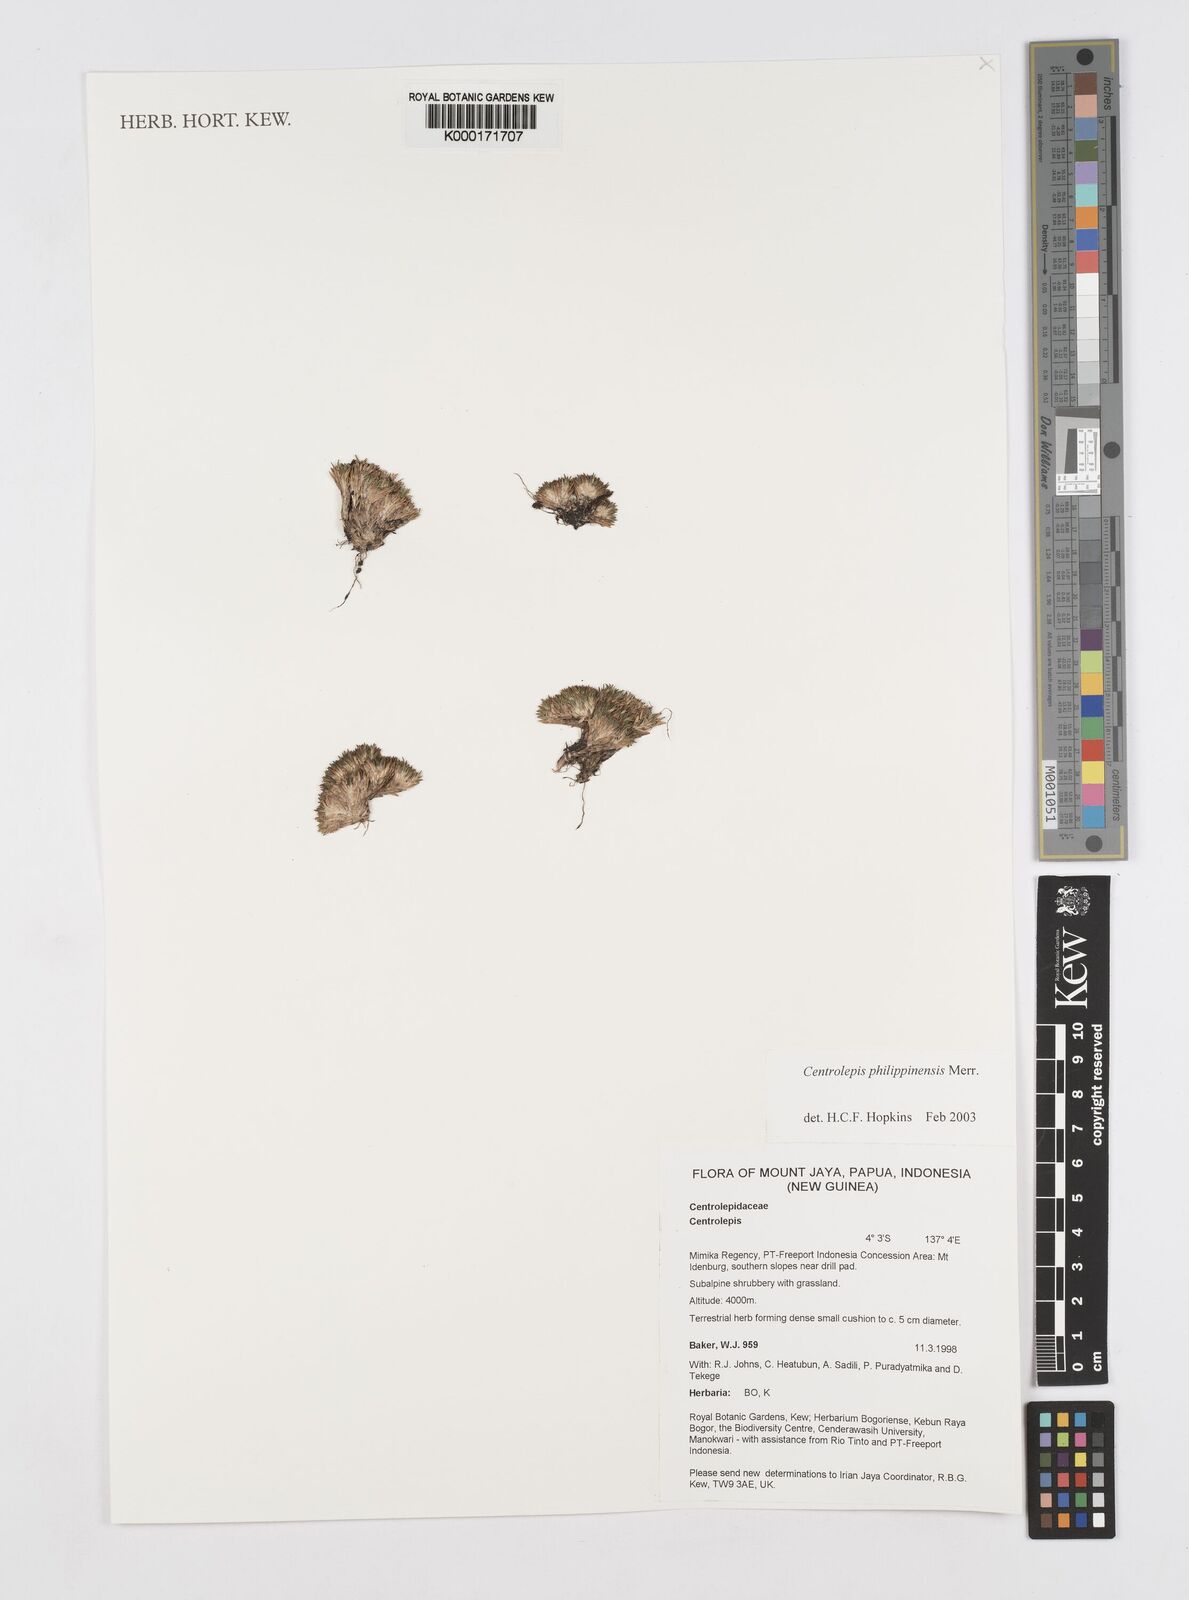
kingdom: Plantae
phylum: Tracheophyta
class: Liliopsida
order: Poales
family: Restionaceae
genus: Centrolepis
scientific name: Centrolepis philippinensis
